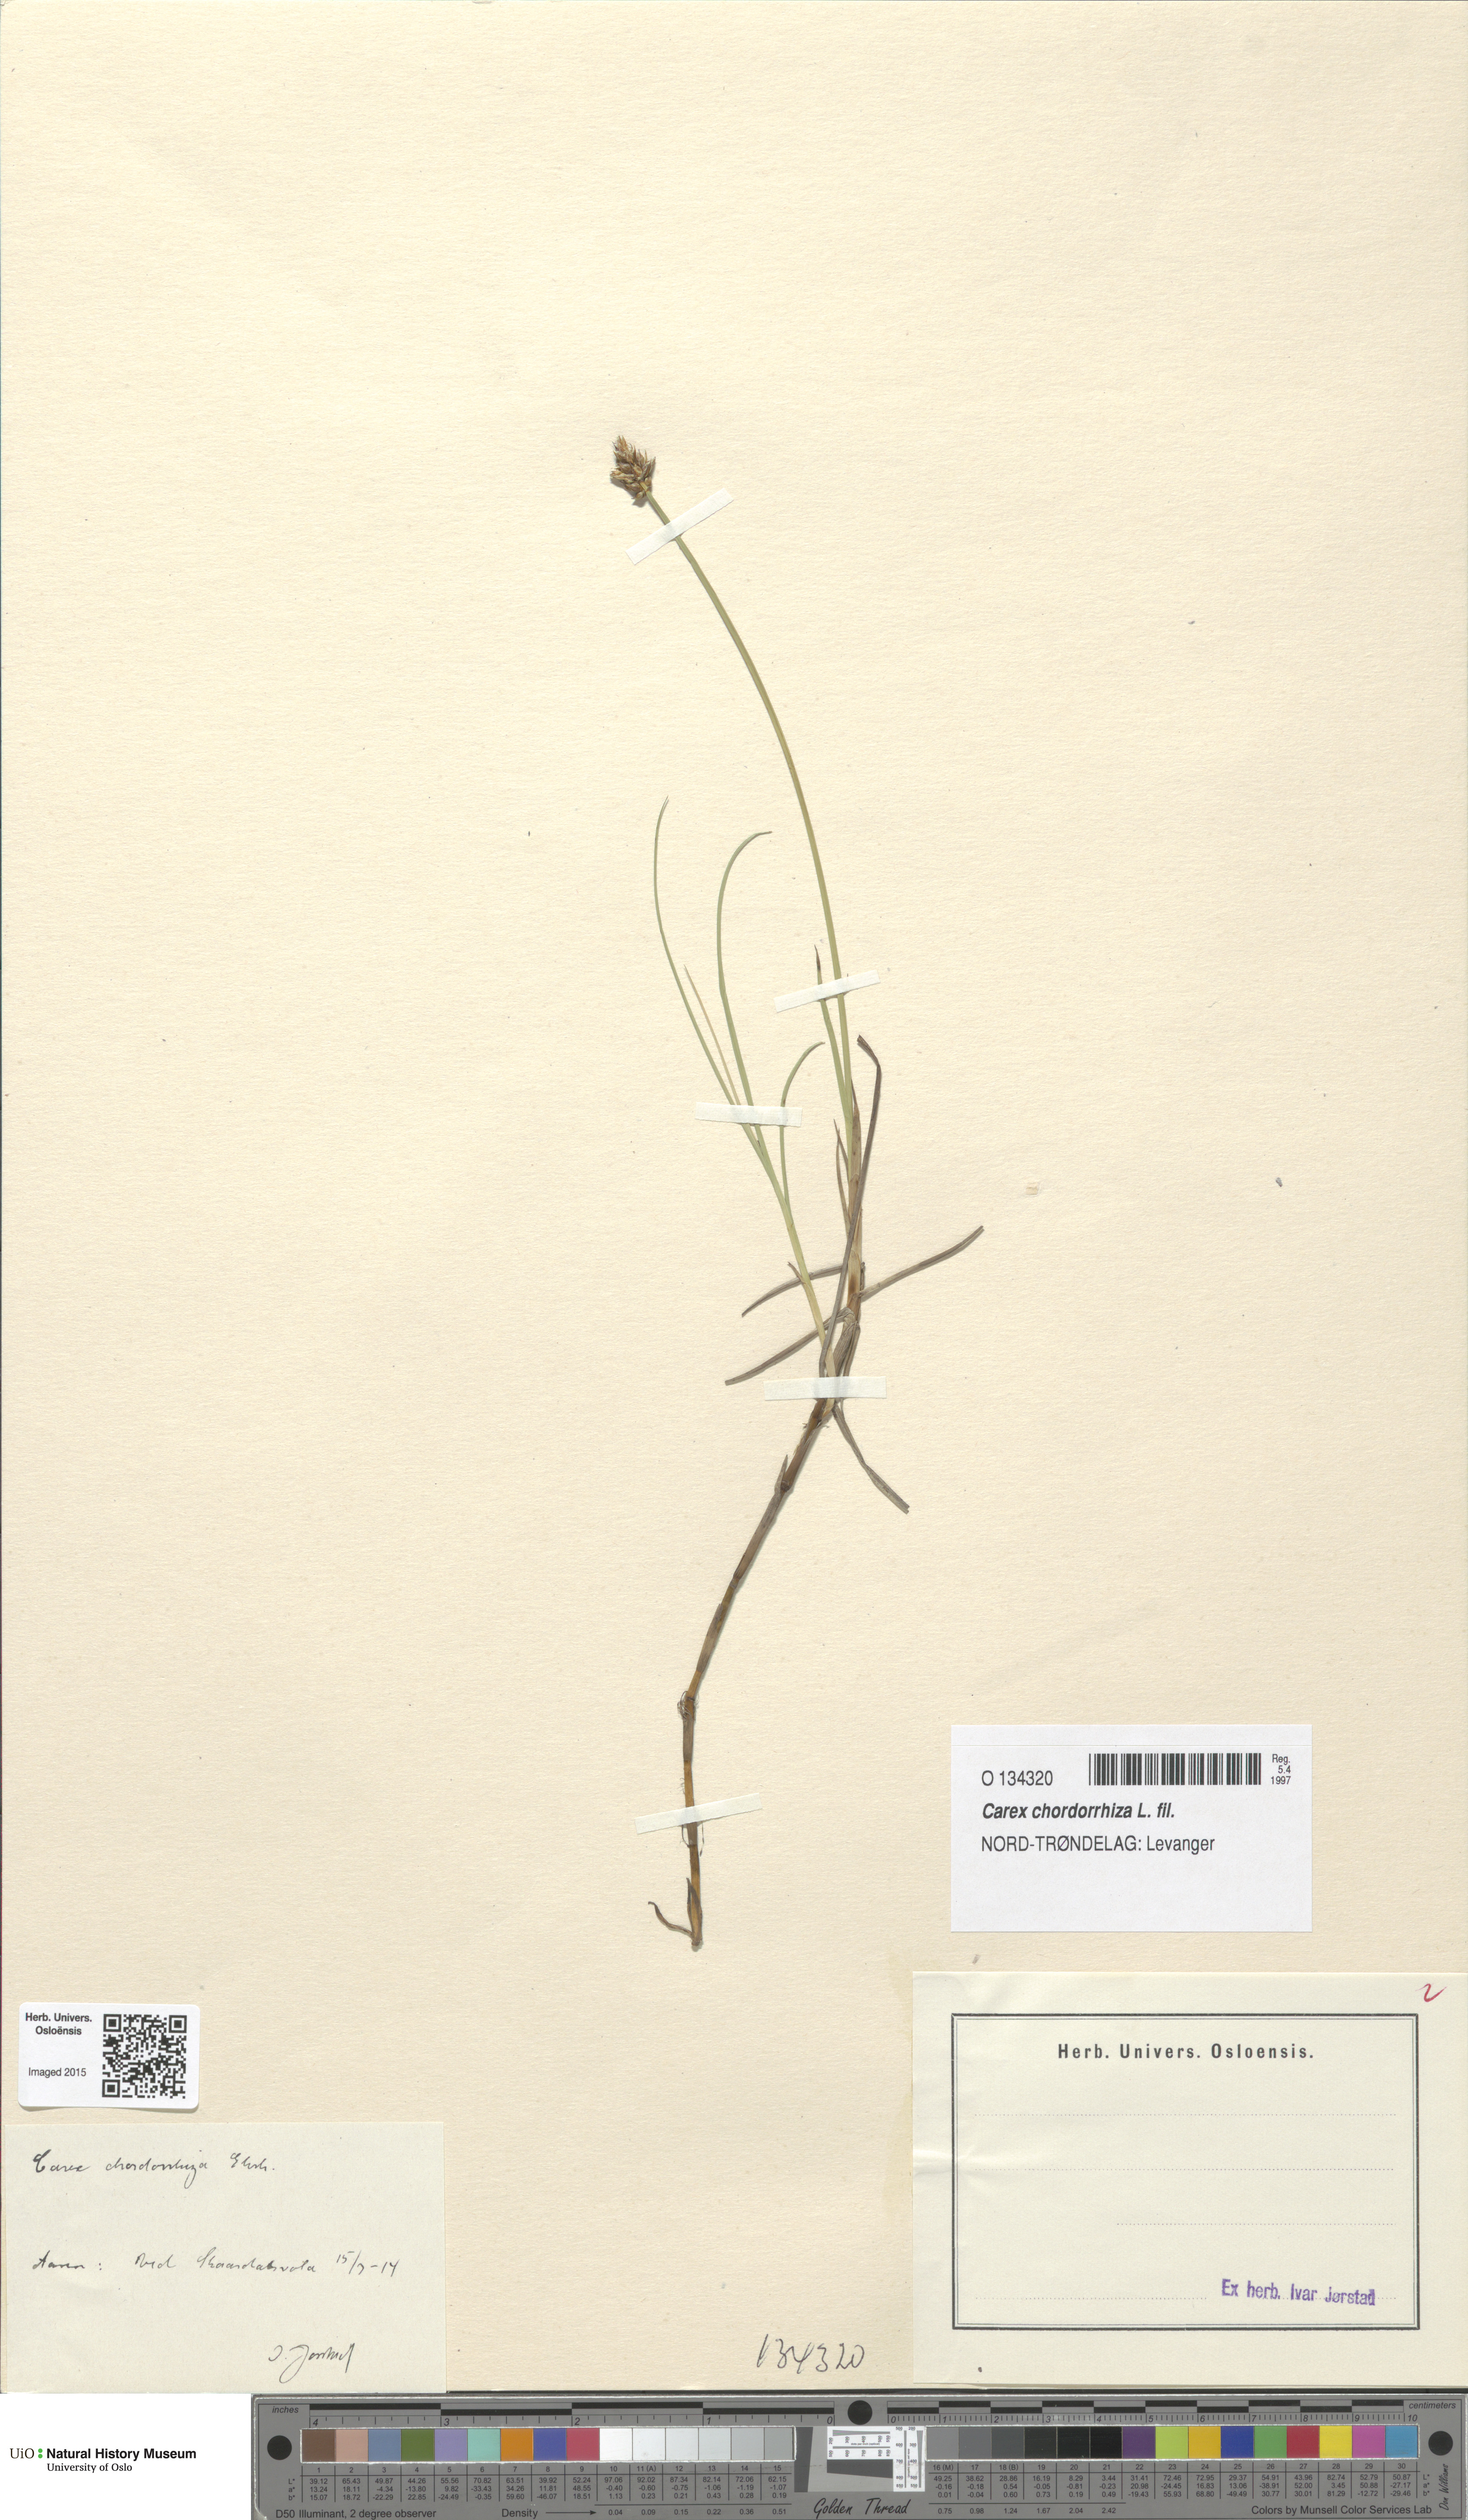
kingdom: Plantae
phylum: Tracheophyta
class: Liliopsida
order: Poales
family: Cyperaceae
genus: Carex
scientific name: Carex chordorrhiza
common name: String sedge
